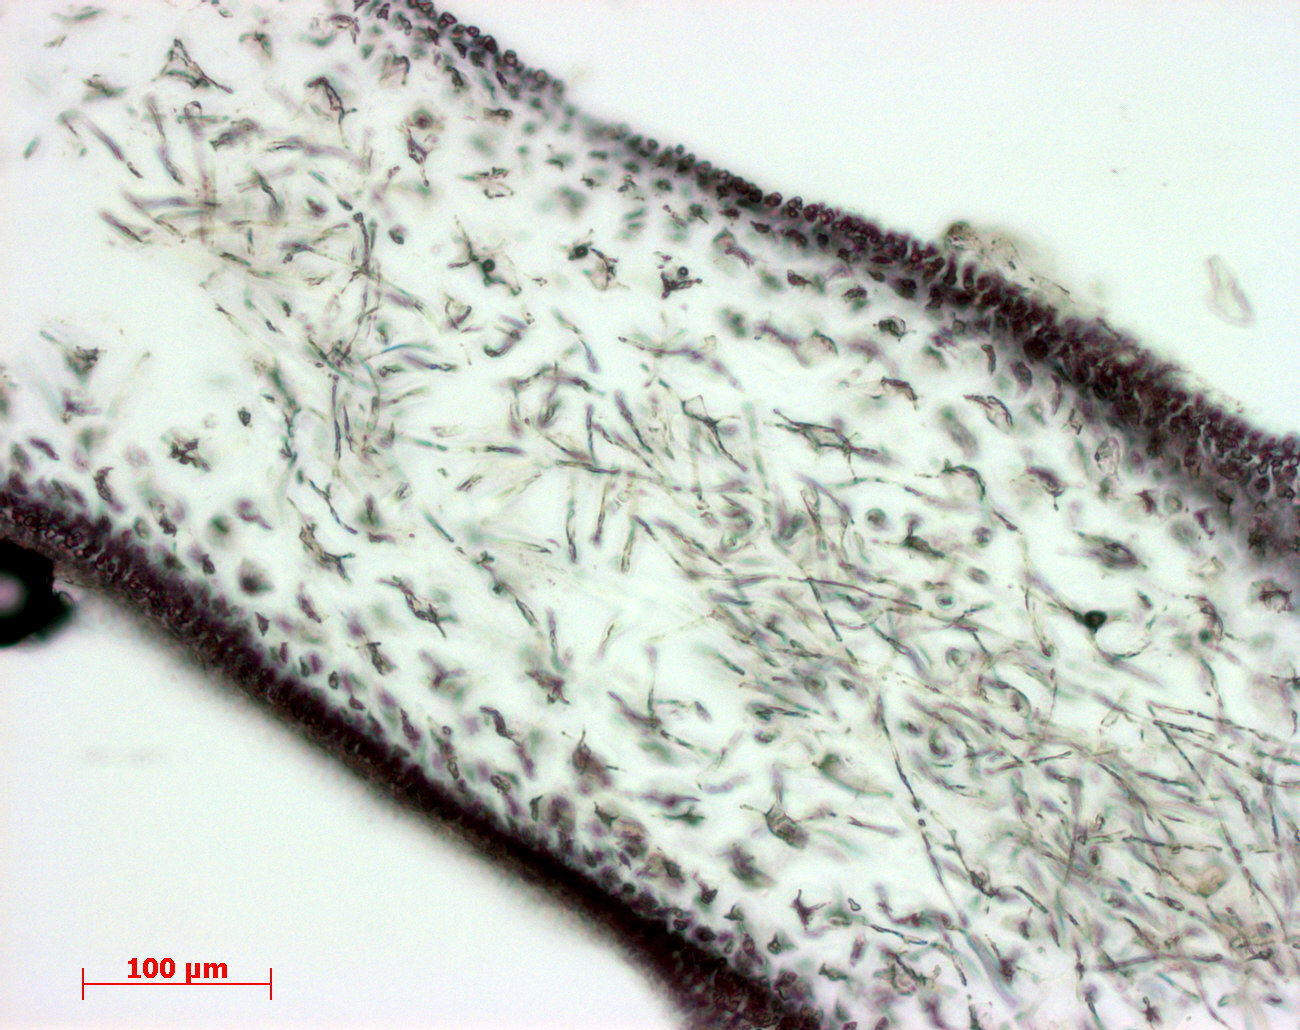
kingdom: Plantae
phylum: Rhodophyta
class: Florideophyceae
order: Gigartinales
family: Kallymeniaceae
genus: Psaromenia
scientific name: Psaromenia berggrenii
